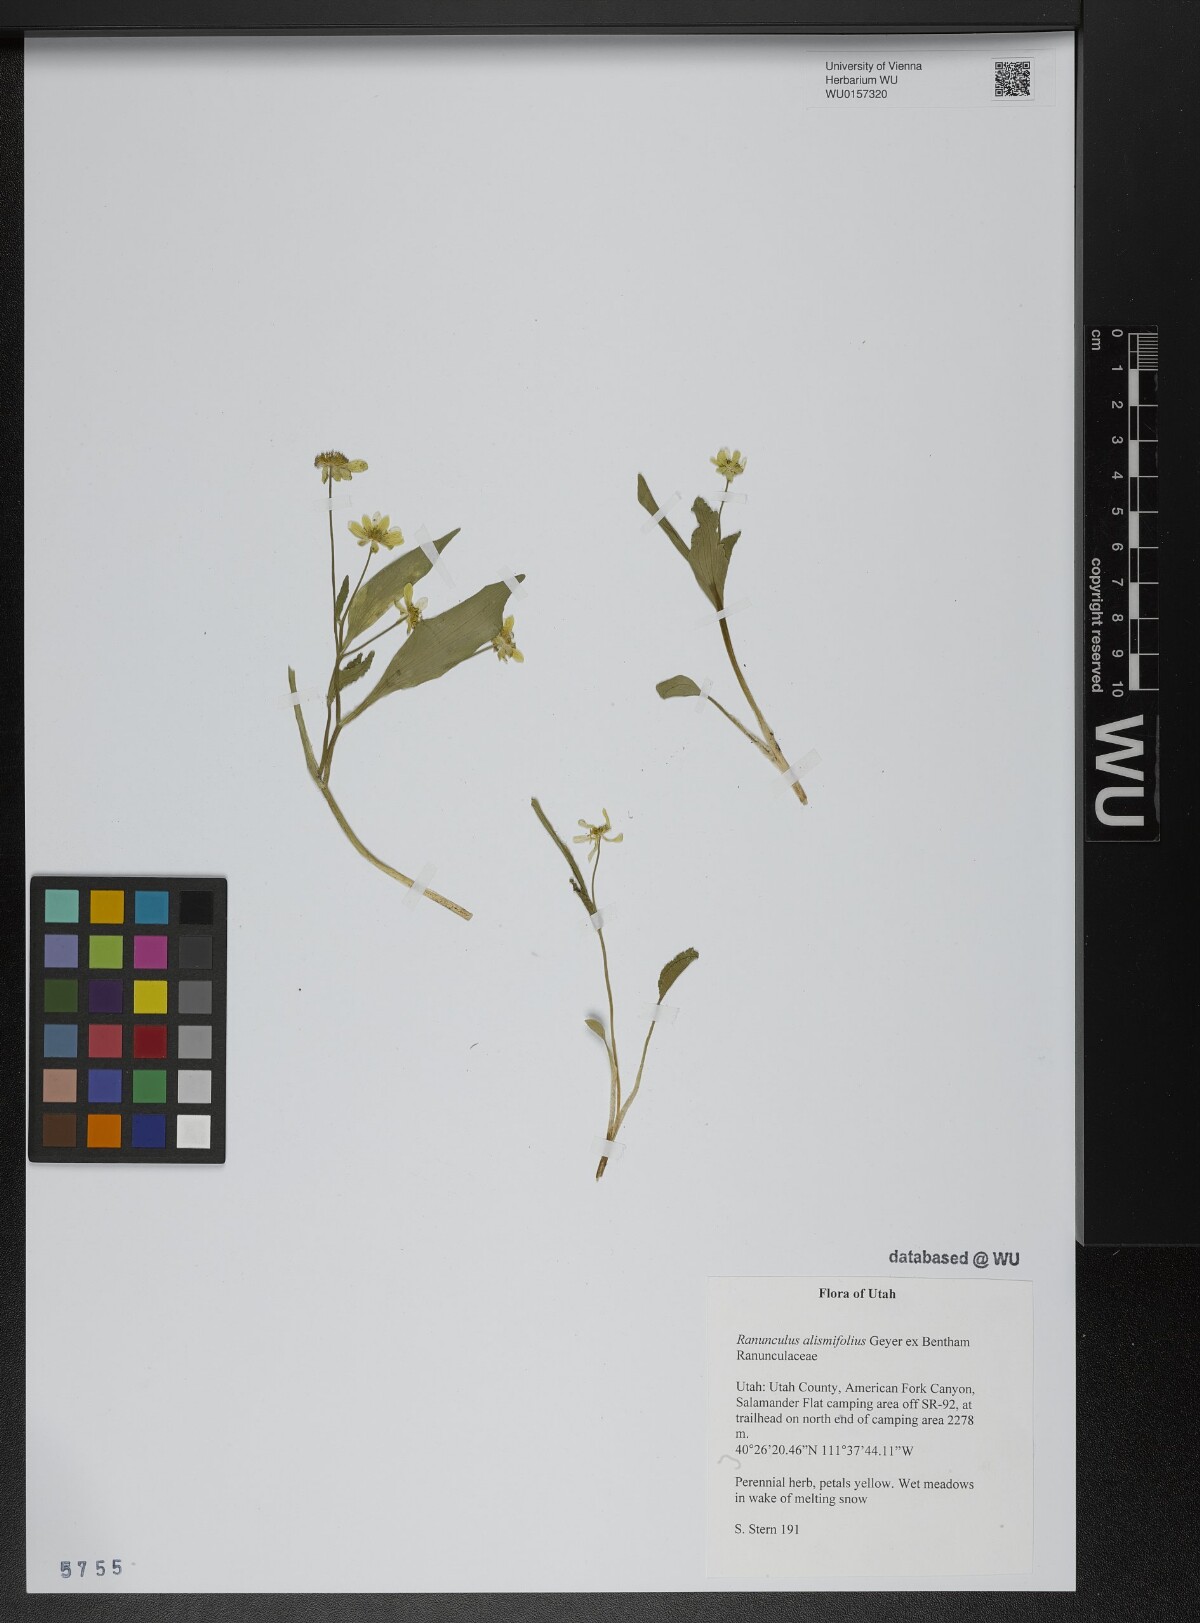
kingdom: Plantae
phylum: Tracheophyta
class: Magnoliopsida
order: Ranunculales
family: Ranunculaceae
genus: Ranunculus
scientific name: Ranunculus alismifolius
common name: Plantain-leaved buttercup
